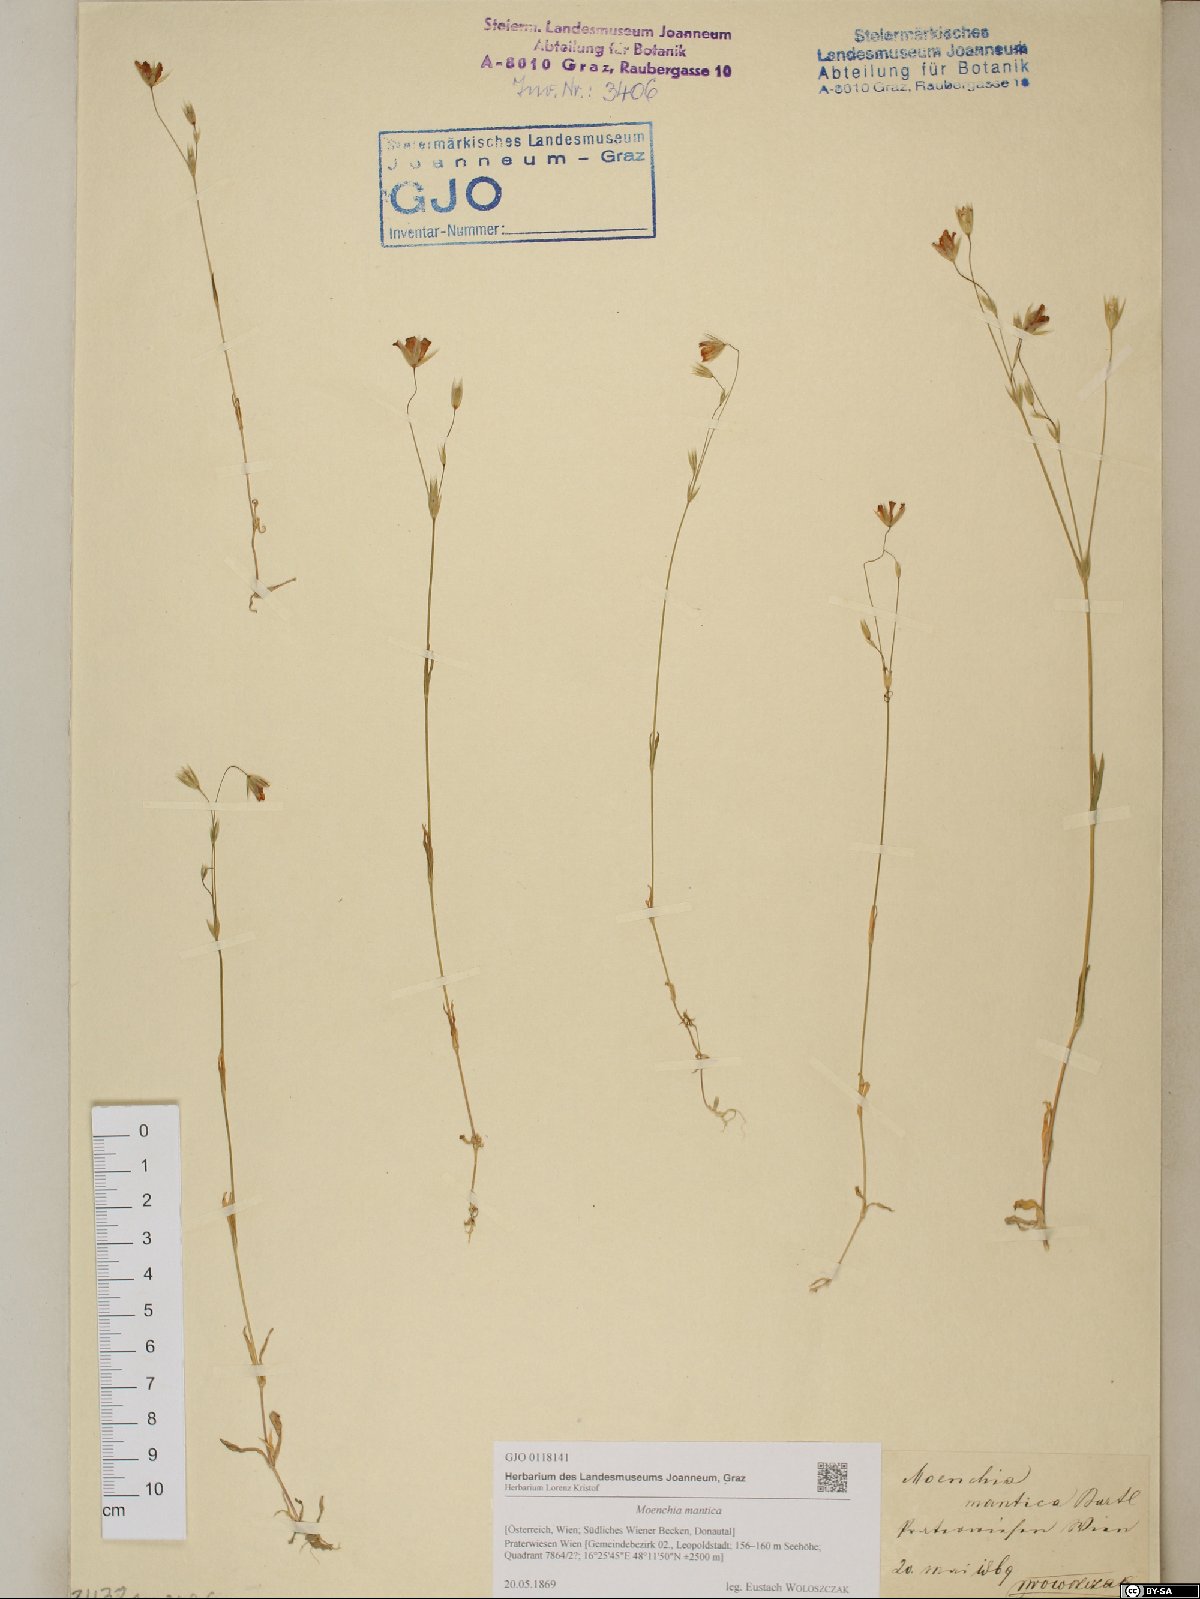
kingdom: Plantae
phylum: Tracheophyta
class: Magnoliopsida
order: Caryophyllales
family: Caryophyllaceae
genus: Moenchia
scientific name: Moenchia mantica
